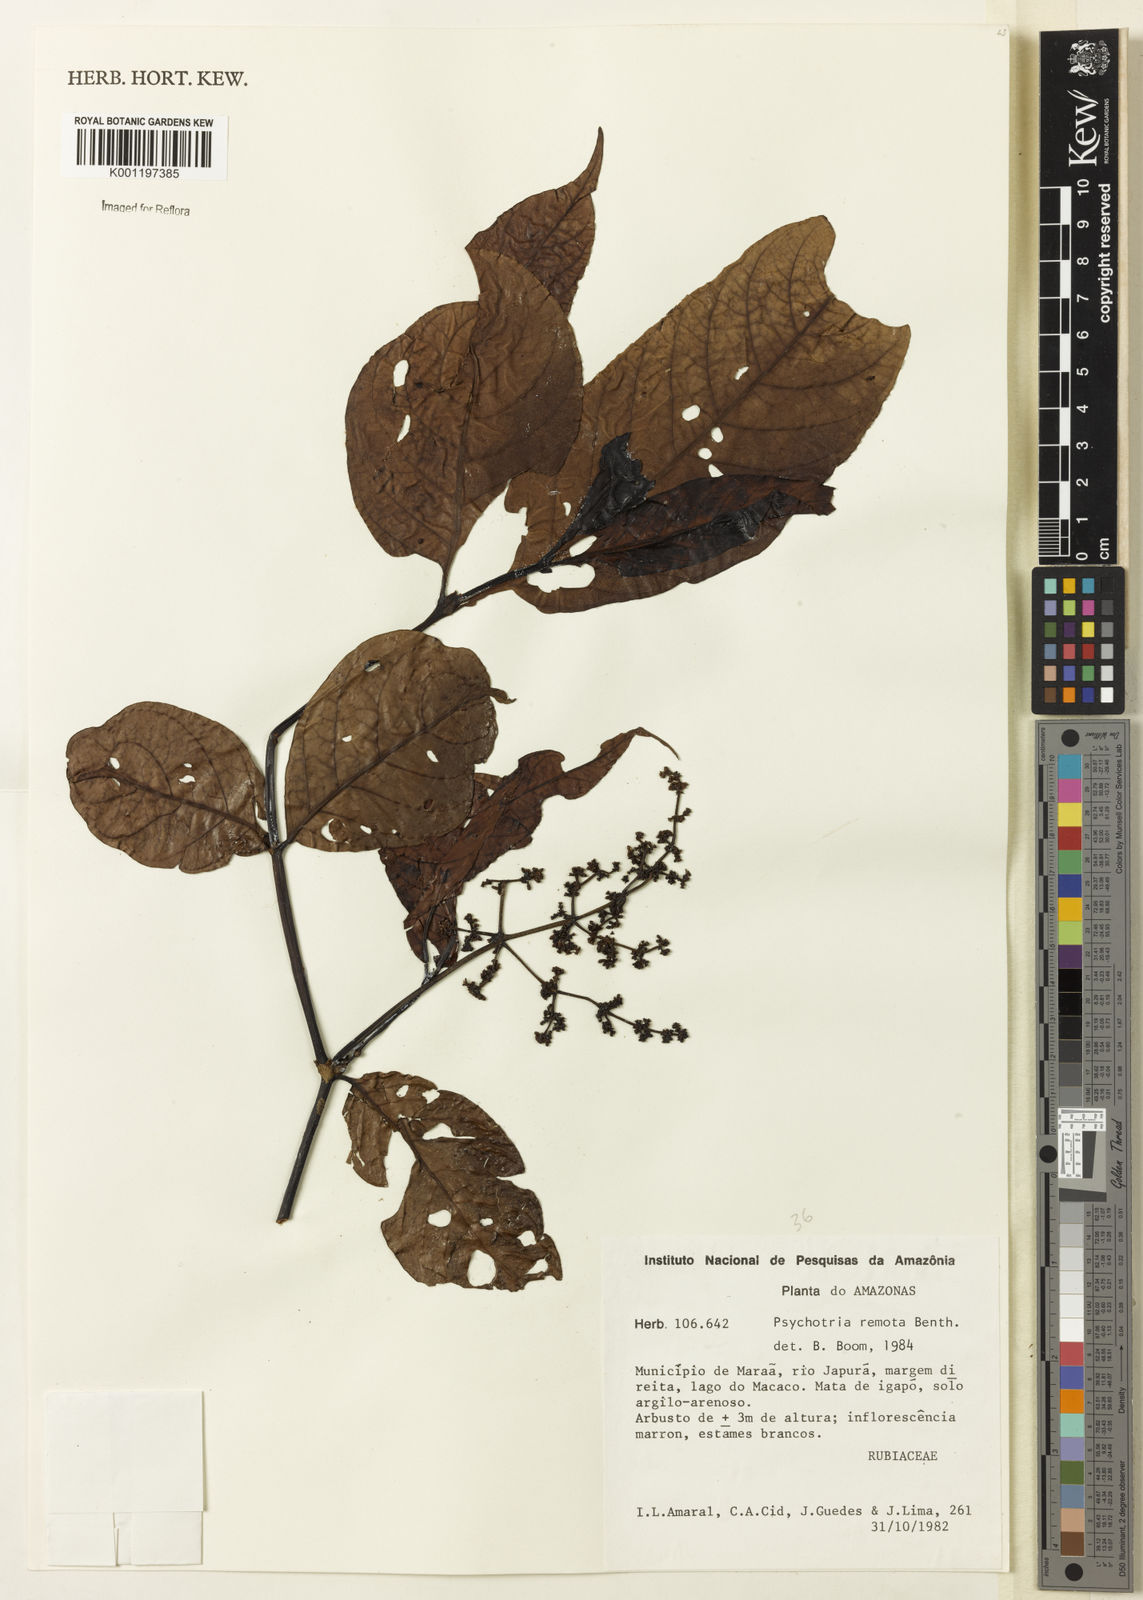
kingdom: Plantae
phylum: Tracheophyta
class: Magnoliopsida
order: Gentianales
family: Rubiaceae
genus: Psychotria
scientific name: Psychotria remota
